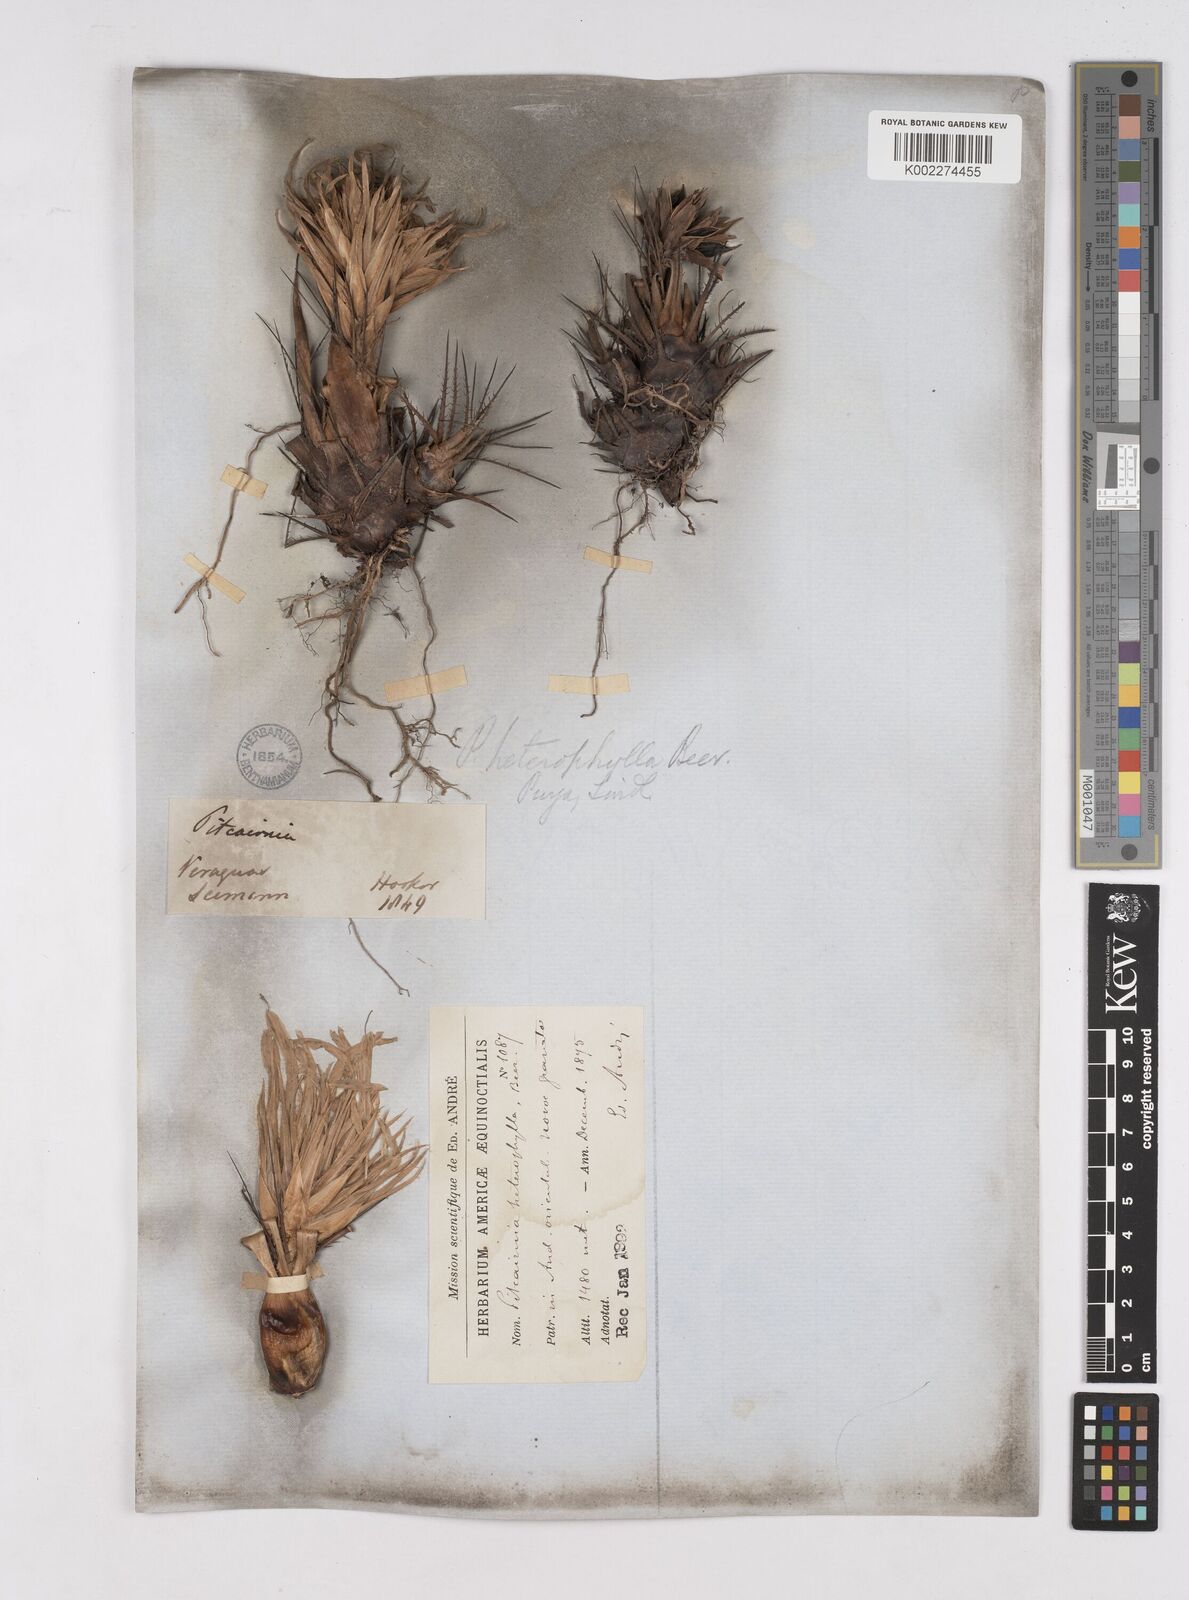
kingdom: Plantae
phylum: Tracheophyta
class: Liliopsida
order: Poales
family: Bromeliaceae
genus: Pitcairnia
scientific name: Pitcairnia heterophylla
